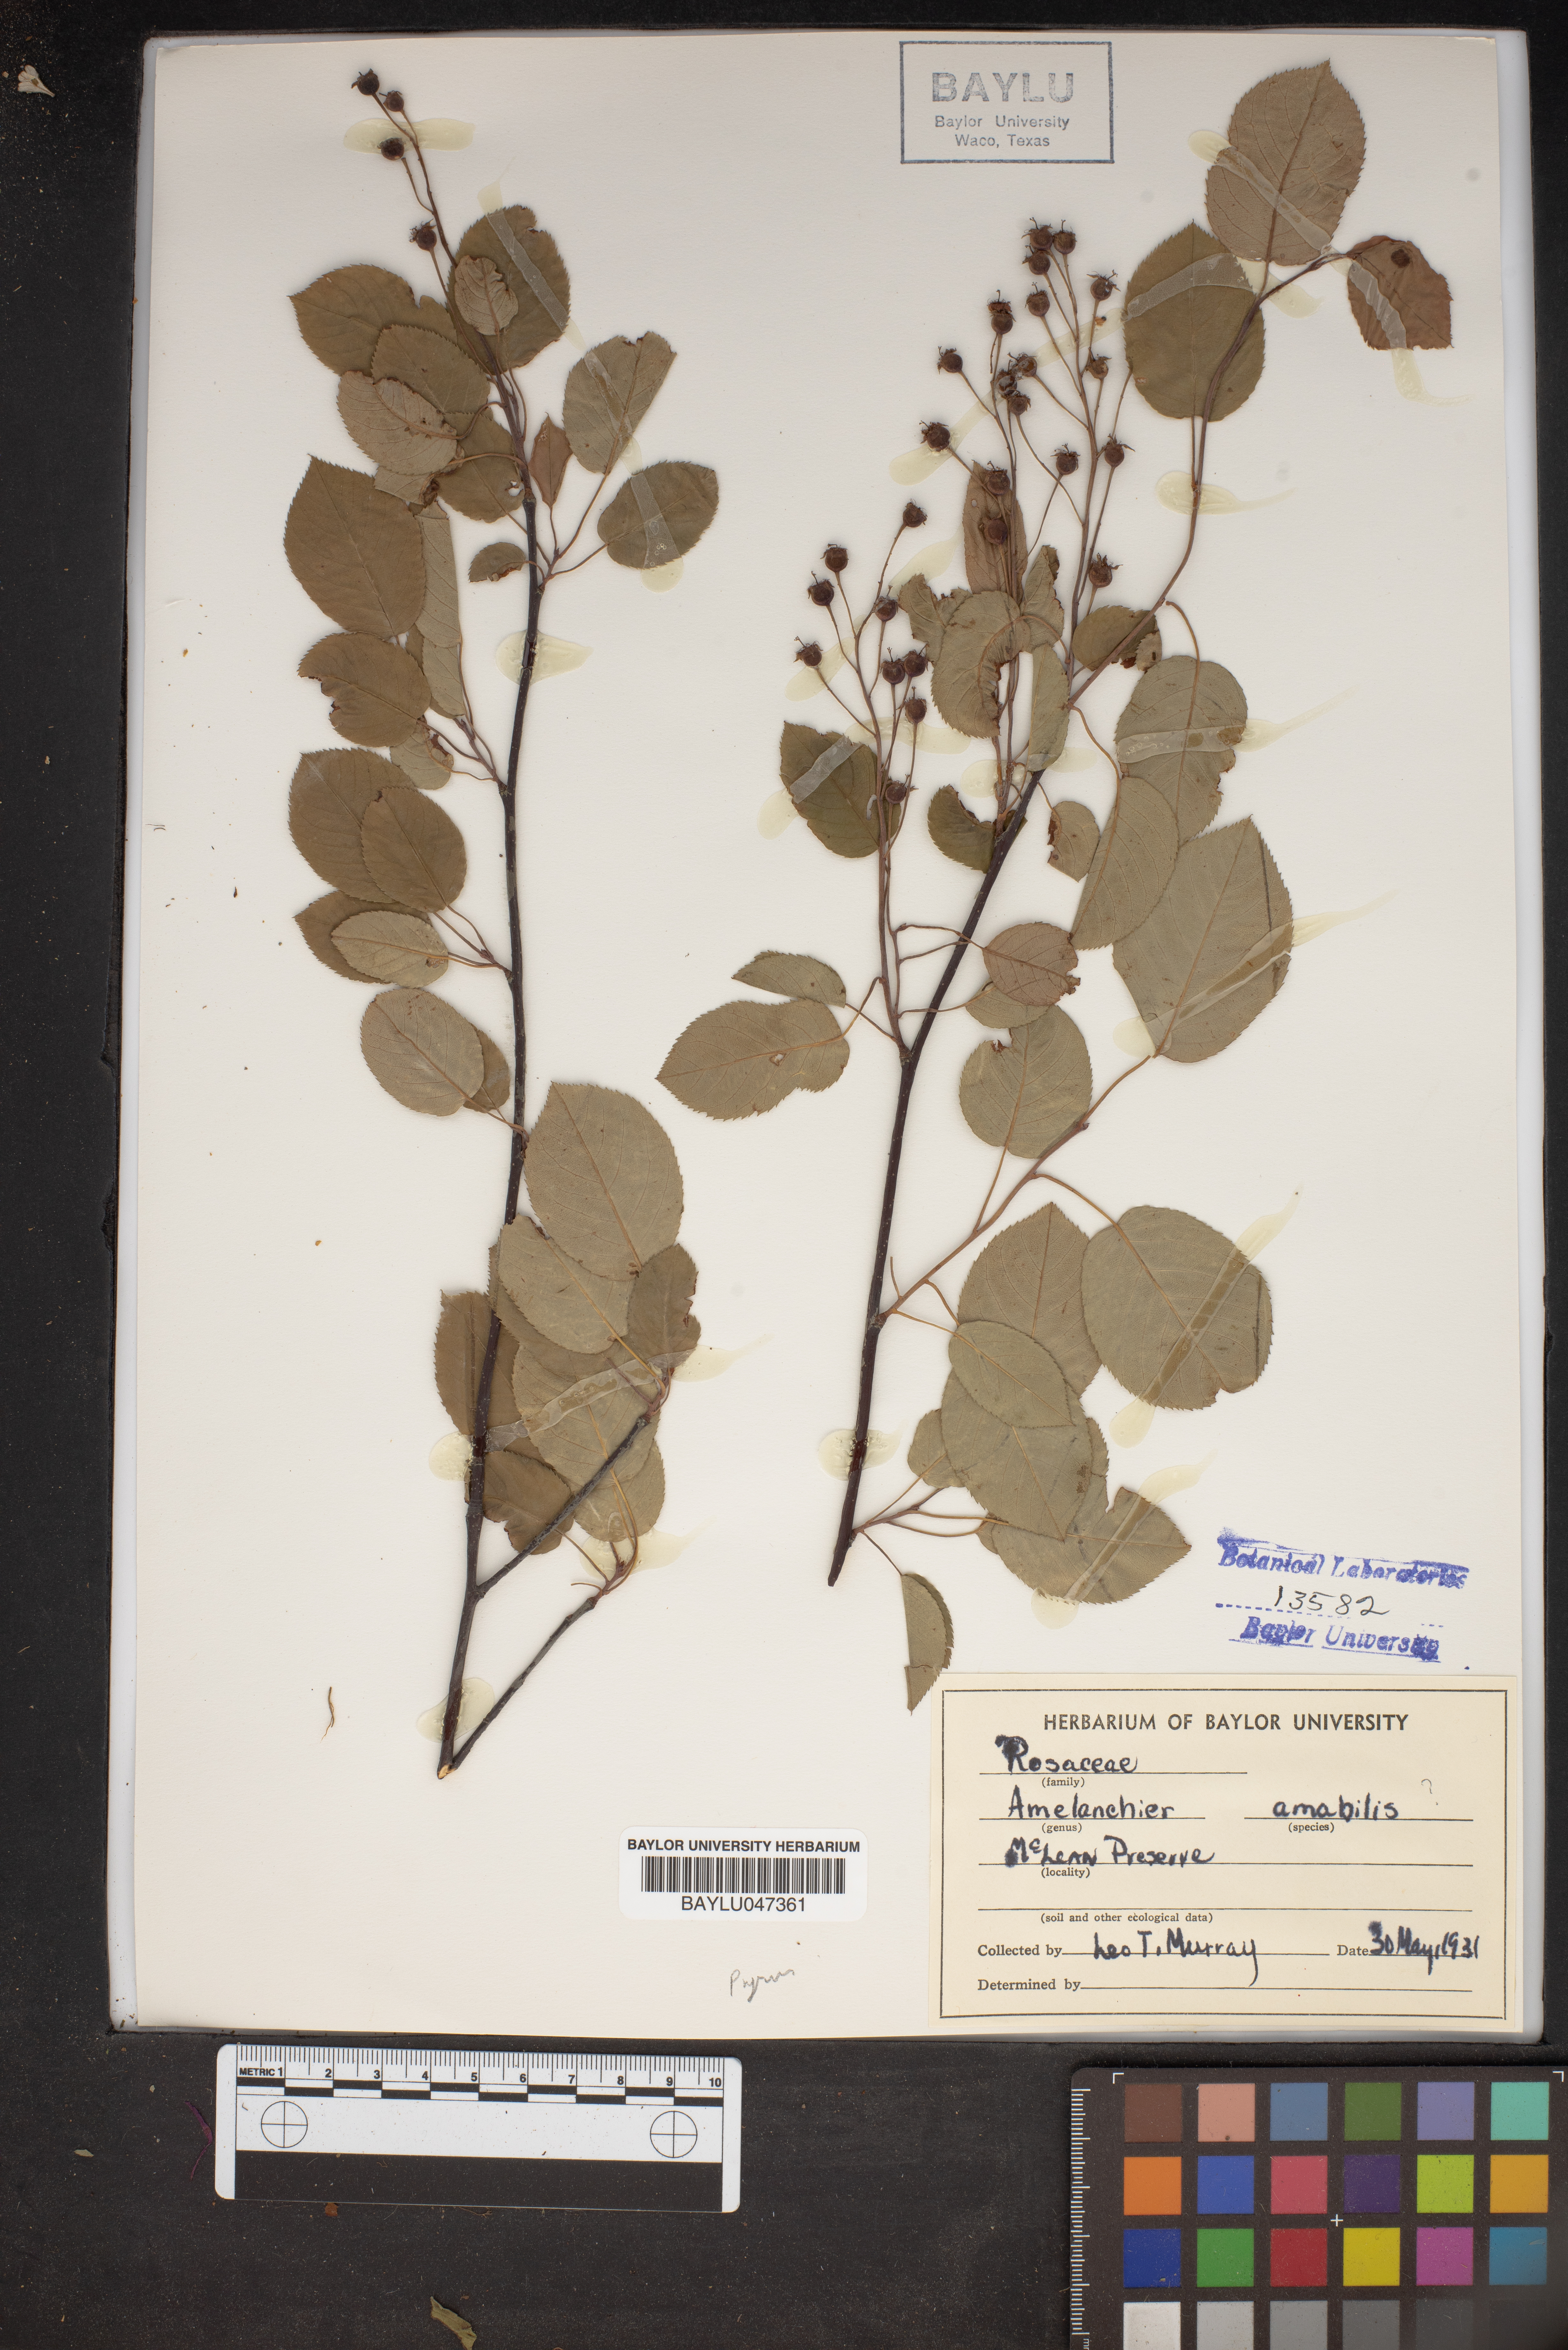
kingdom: Plantae
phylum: Tracheophyta
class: Magnoliopsida
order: Rosales
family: Rosaceae
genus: Amelanchier
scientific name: Amelanchier sanguinea
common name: Huron serviceberry
